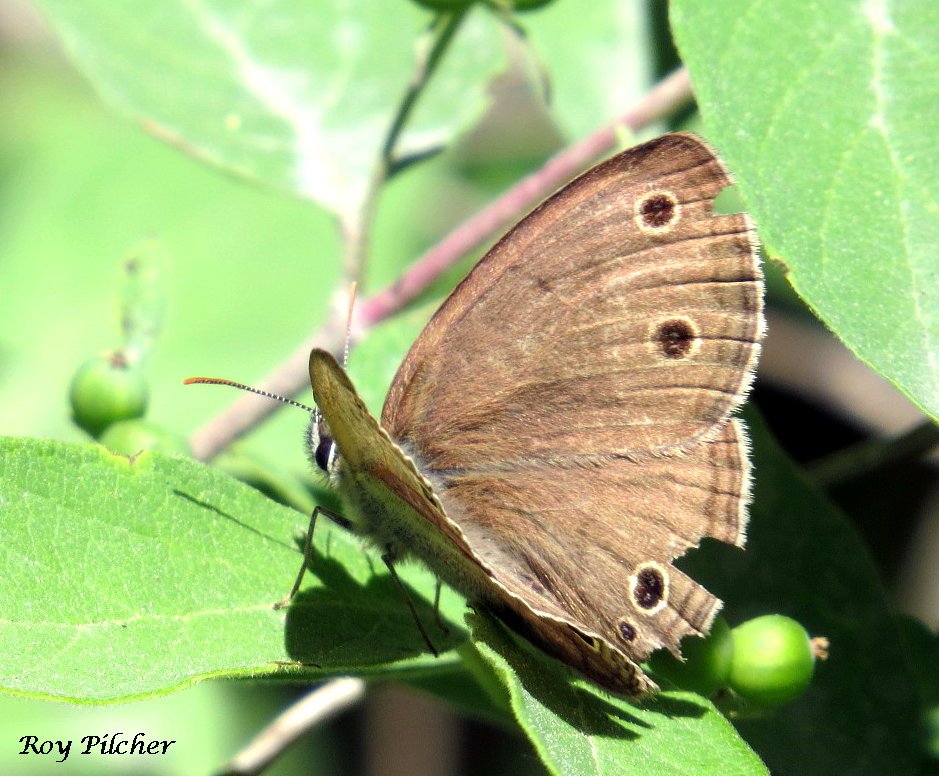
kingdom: Animalia
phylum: Arthropoda
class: Insecta
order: Lepidoptera
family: Nymphalidae
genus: Euptychia
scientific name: Euptychia cymela
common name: Little Wood Satyr
